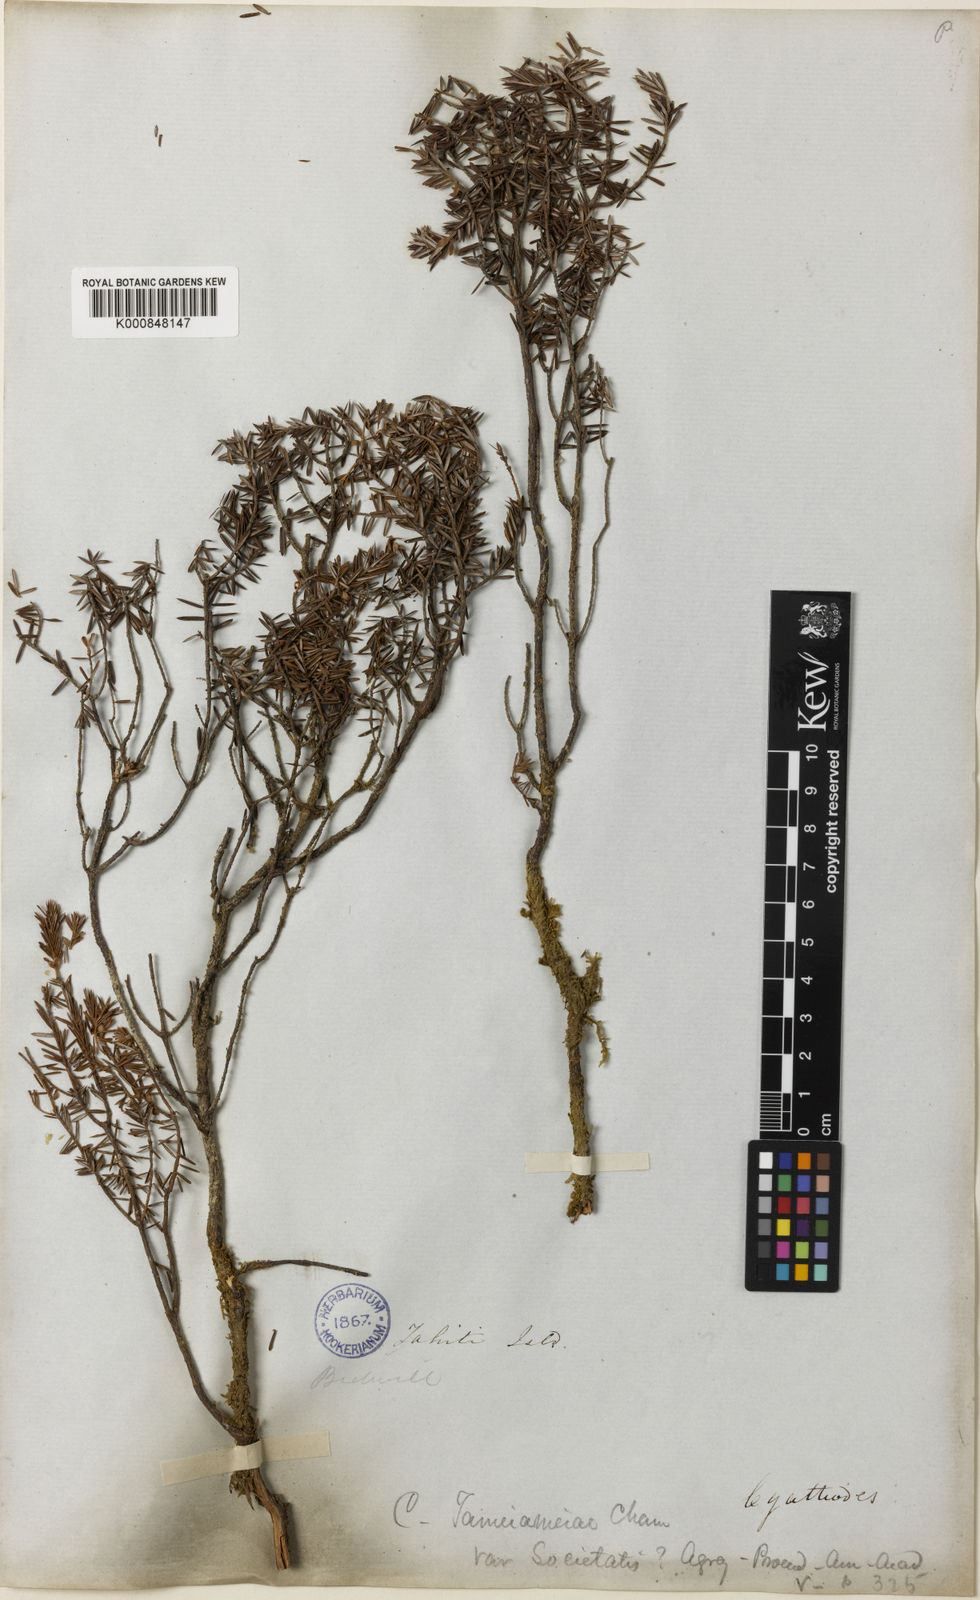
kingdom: Plantae
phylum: Tracheophyta
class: Magnoliopsida
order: Ericales
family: Ericaceae
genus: Leptecophylla
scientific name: Leptecophylla tameiameiae
